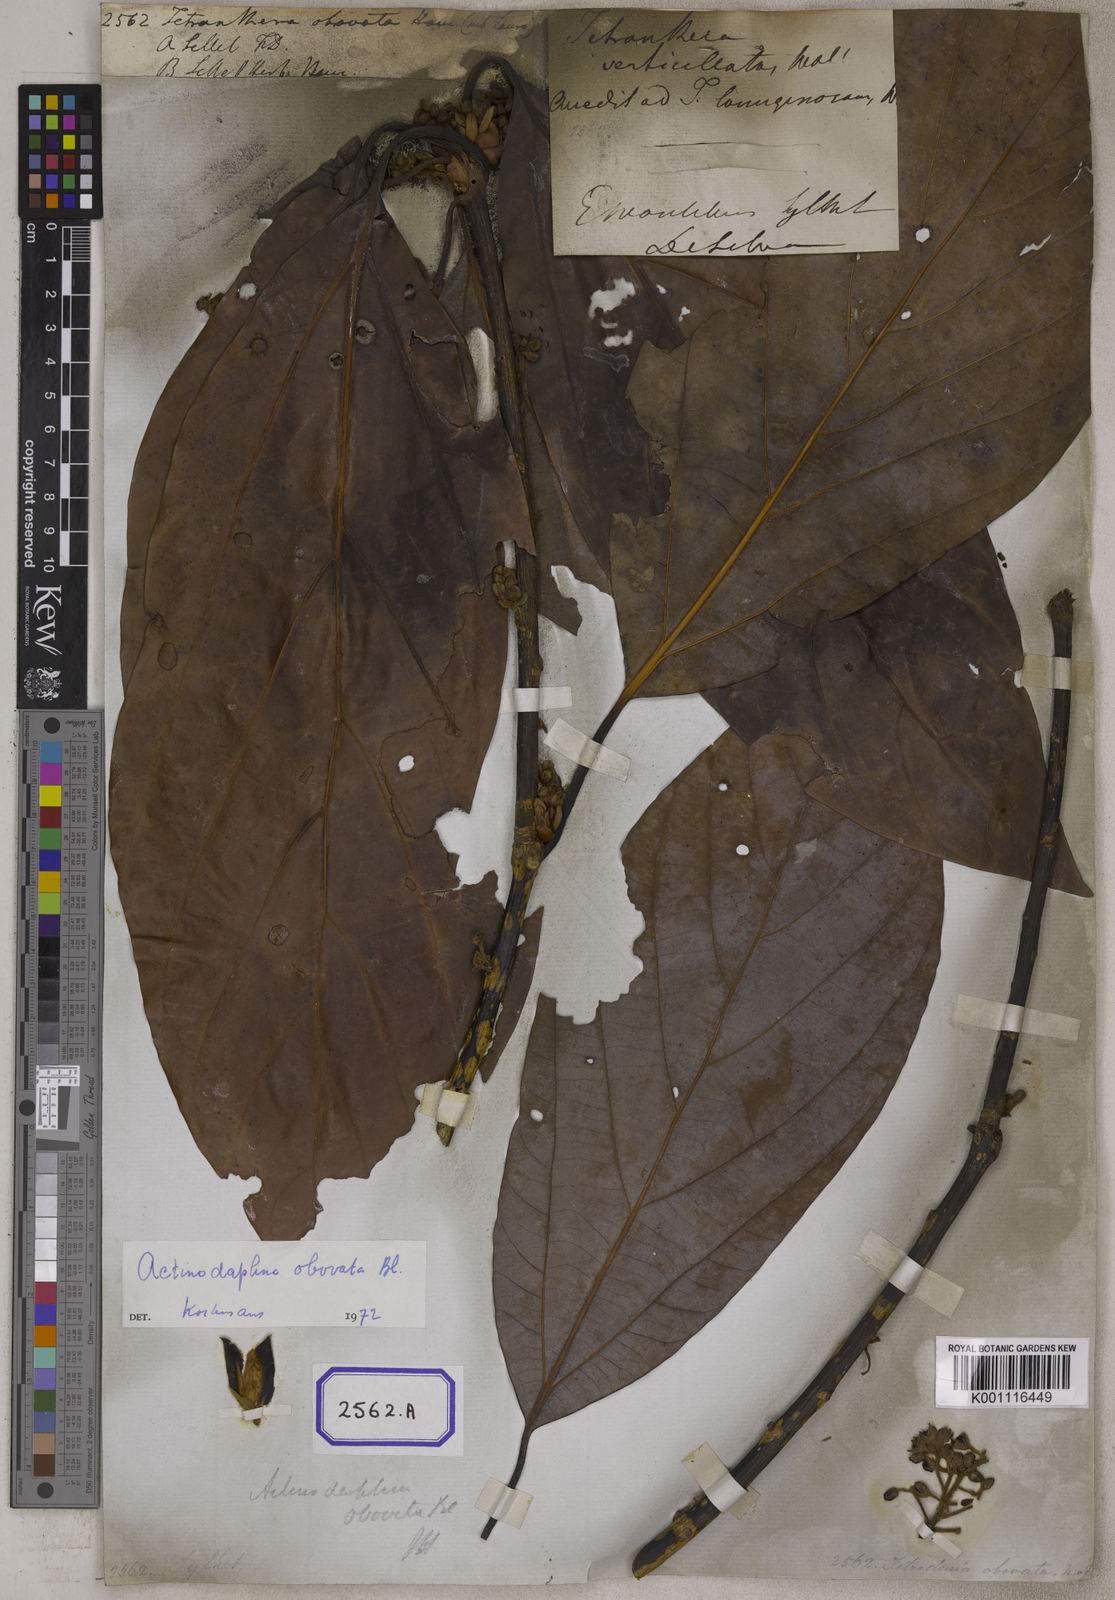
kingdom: Plantae
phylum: Tracheophyta
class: Magnoliopsida
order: Laurales
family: Lauraceae
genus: Actinodaphne
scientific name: Actinodaphne obovata
